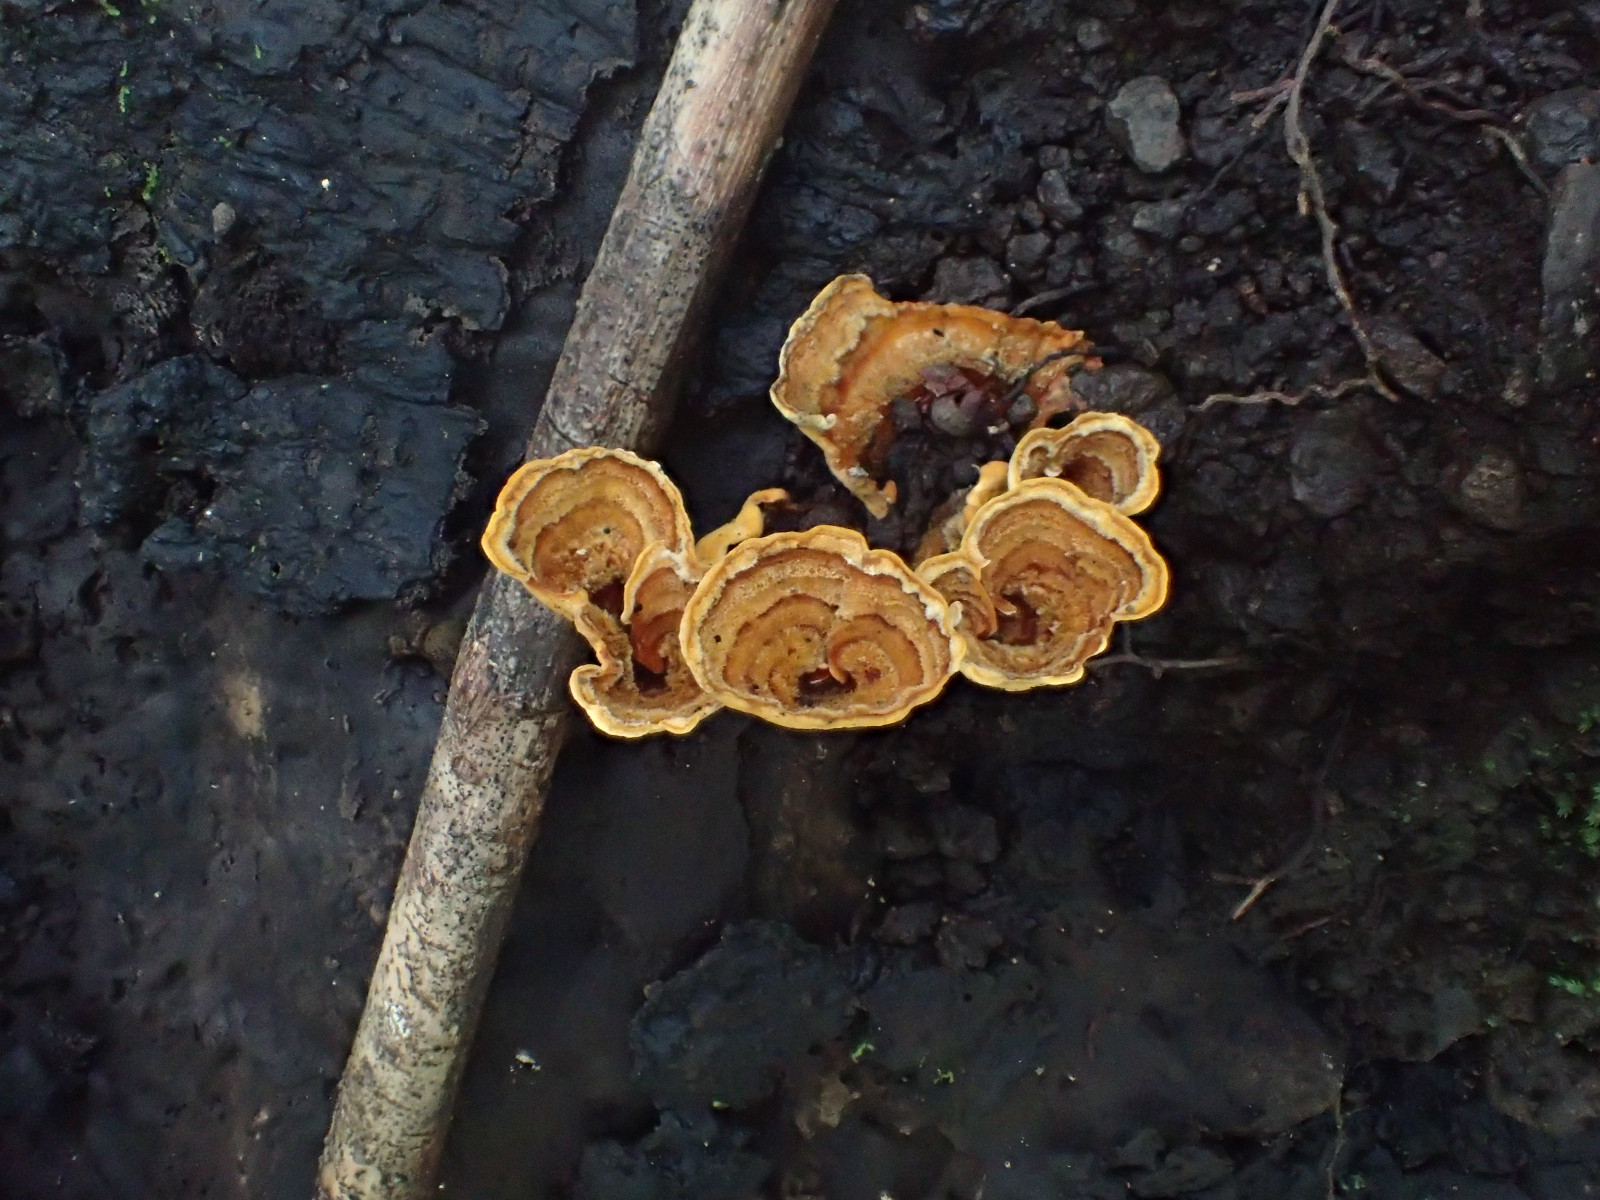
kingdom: Fungi
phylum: Basidiomycota
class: Agaricomycetes
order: Russulales
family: Stereaceae
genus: Stereum
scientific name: Stereum
